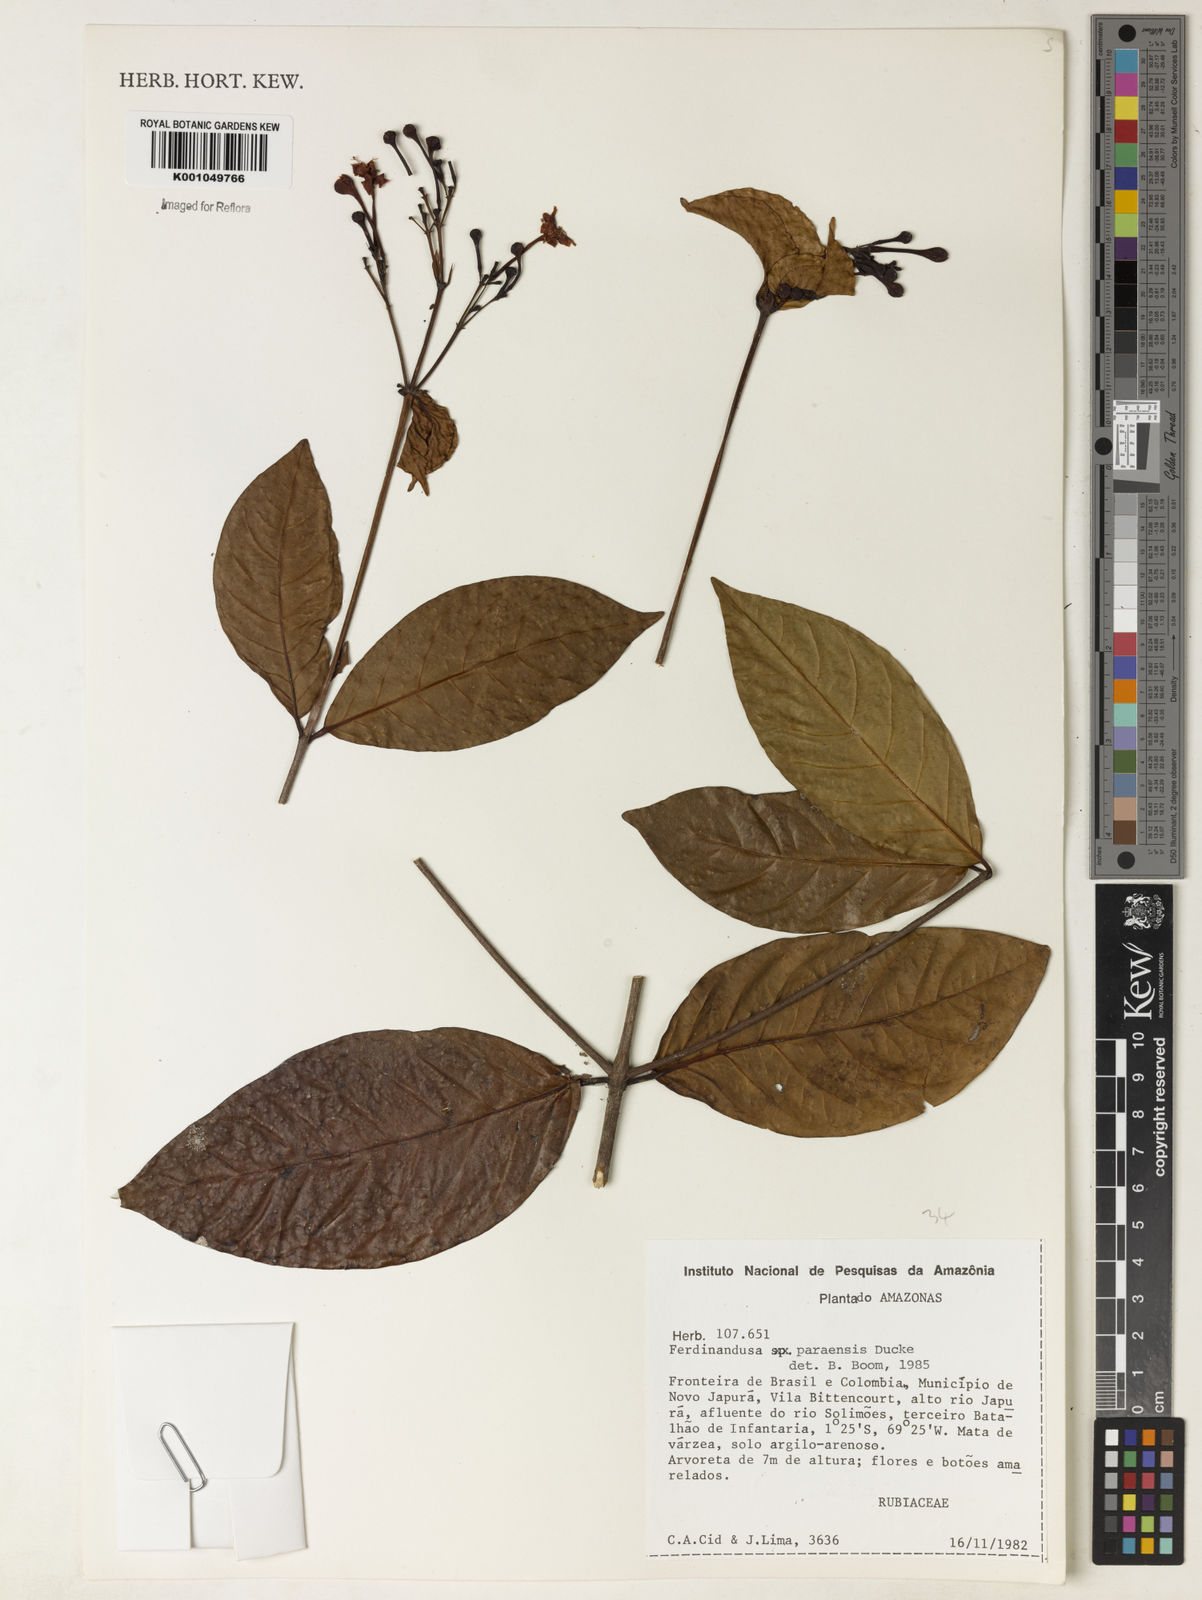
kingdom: Plantae
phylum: Tracheophyta
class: Magnoliopsida
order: Gentianales
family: Rubiaceae
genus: Ferdinandusa
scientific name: Ferdinandusa paraensis
